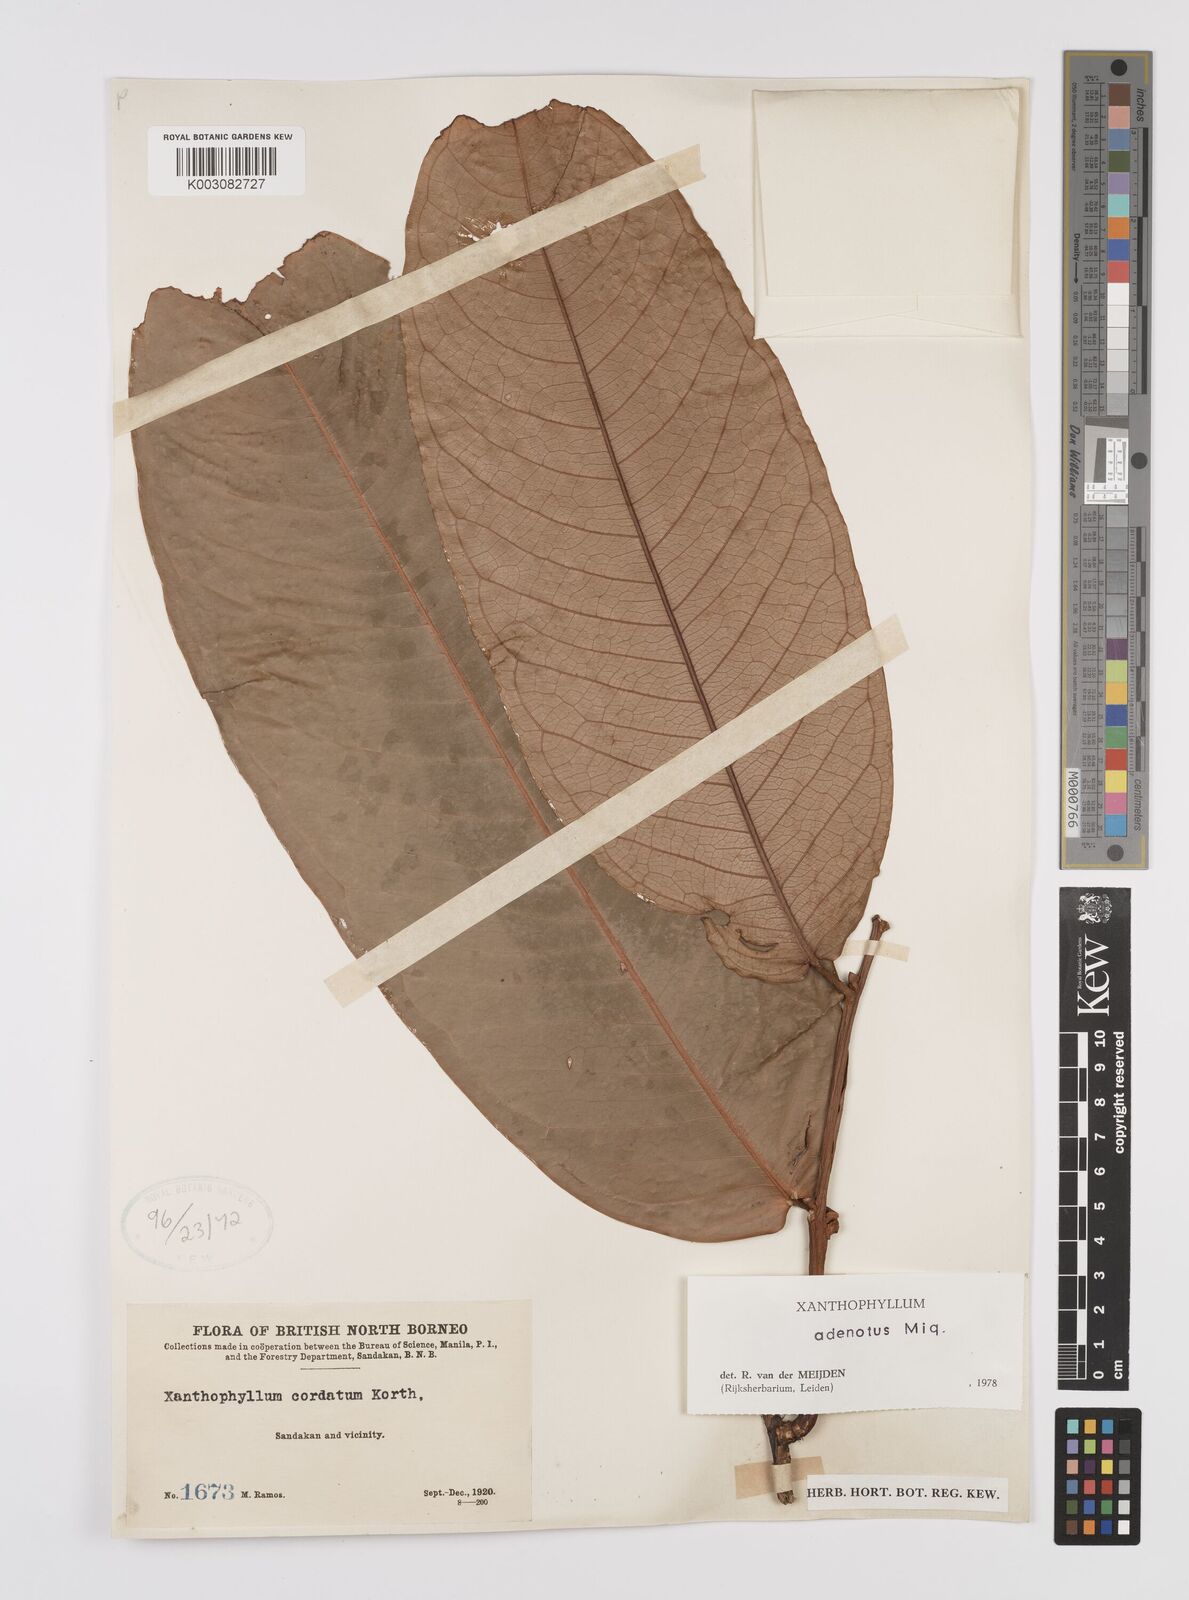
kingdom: Plantae
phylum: Tracheophyta
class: Magnoliopsida
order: Fabales
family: Polygalaceae
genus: Xanthophyllum
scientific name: Xanthophyllum adenotus
